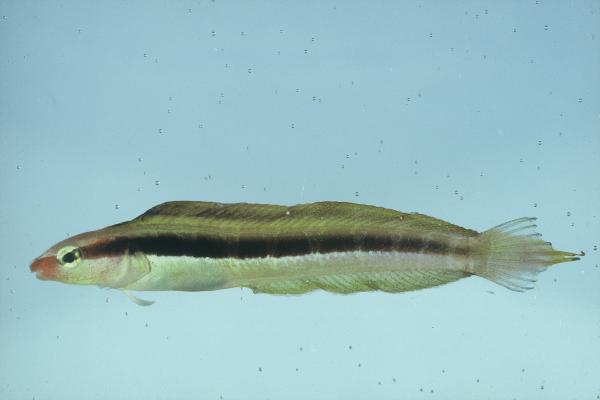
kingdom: Animalia
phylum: Chordata
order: Perciformes
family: Blenniidae
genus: Aspidontus
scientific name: Aspidontus dussumieri
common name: Lance blenny
